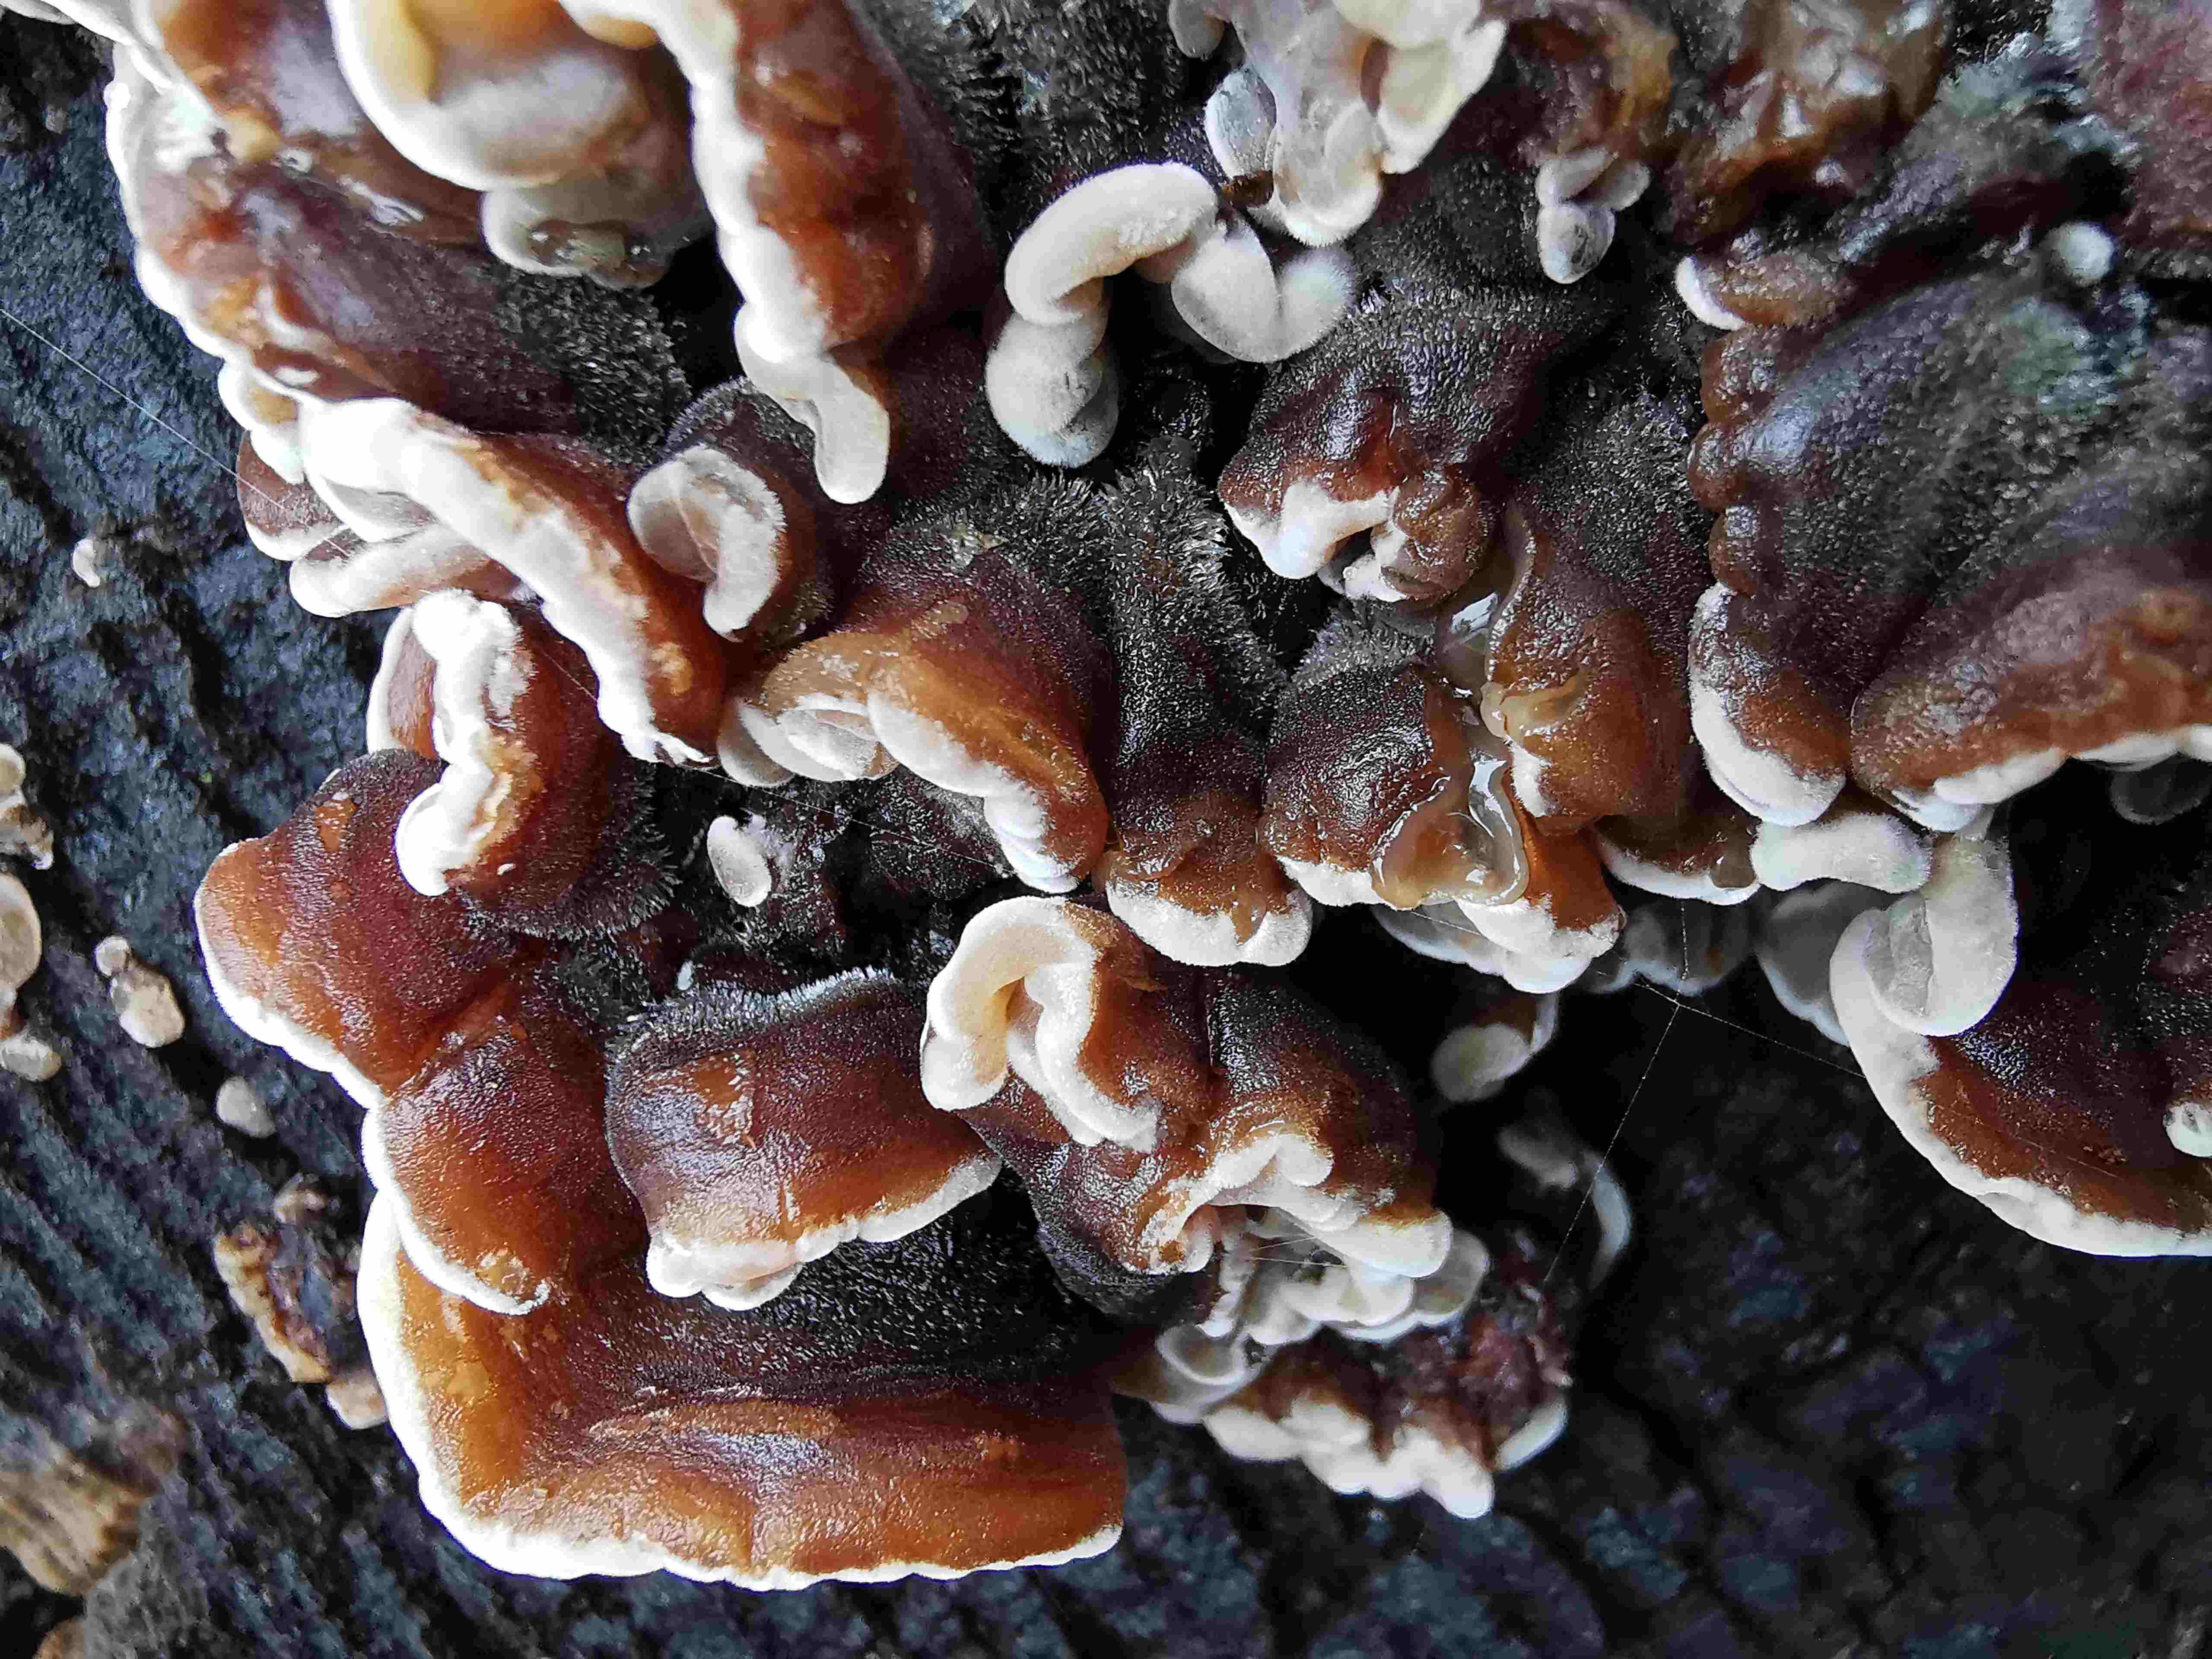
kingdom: Fungi
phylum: Basidiomycota
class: Agaricomycetes
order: Auriculariales
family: Auriculariaceae
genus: Auricularia
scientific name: Auricularia mesenterica
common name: håret judasøre
